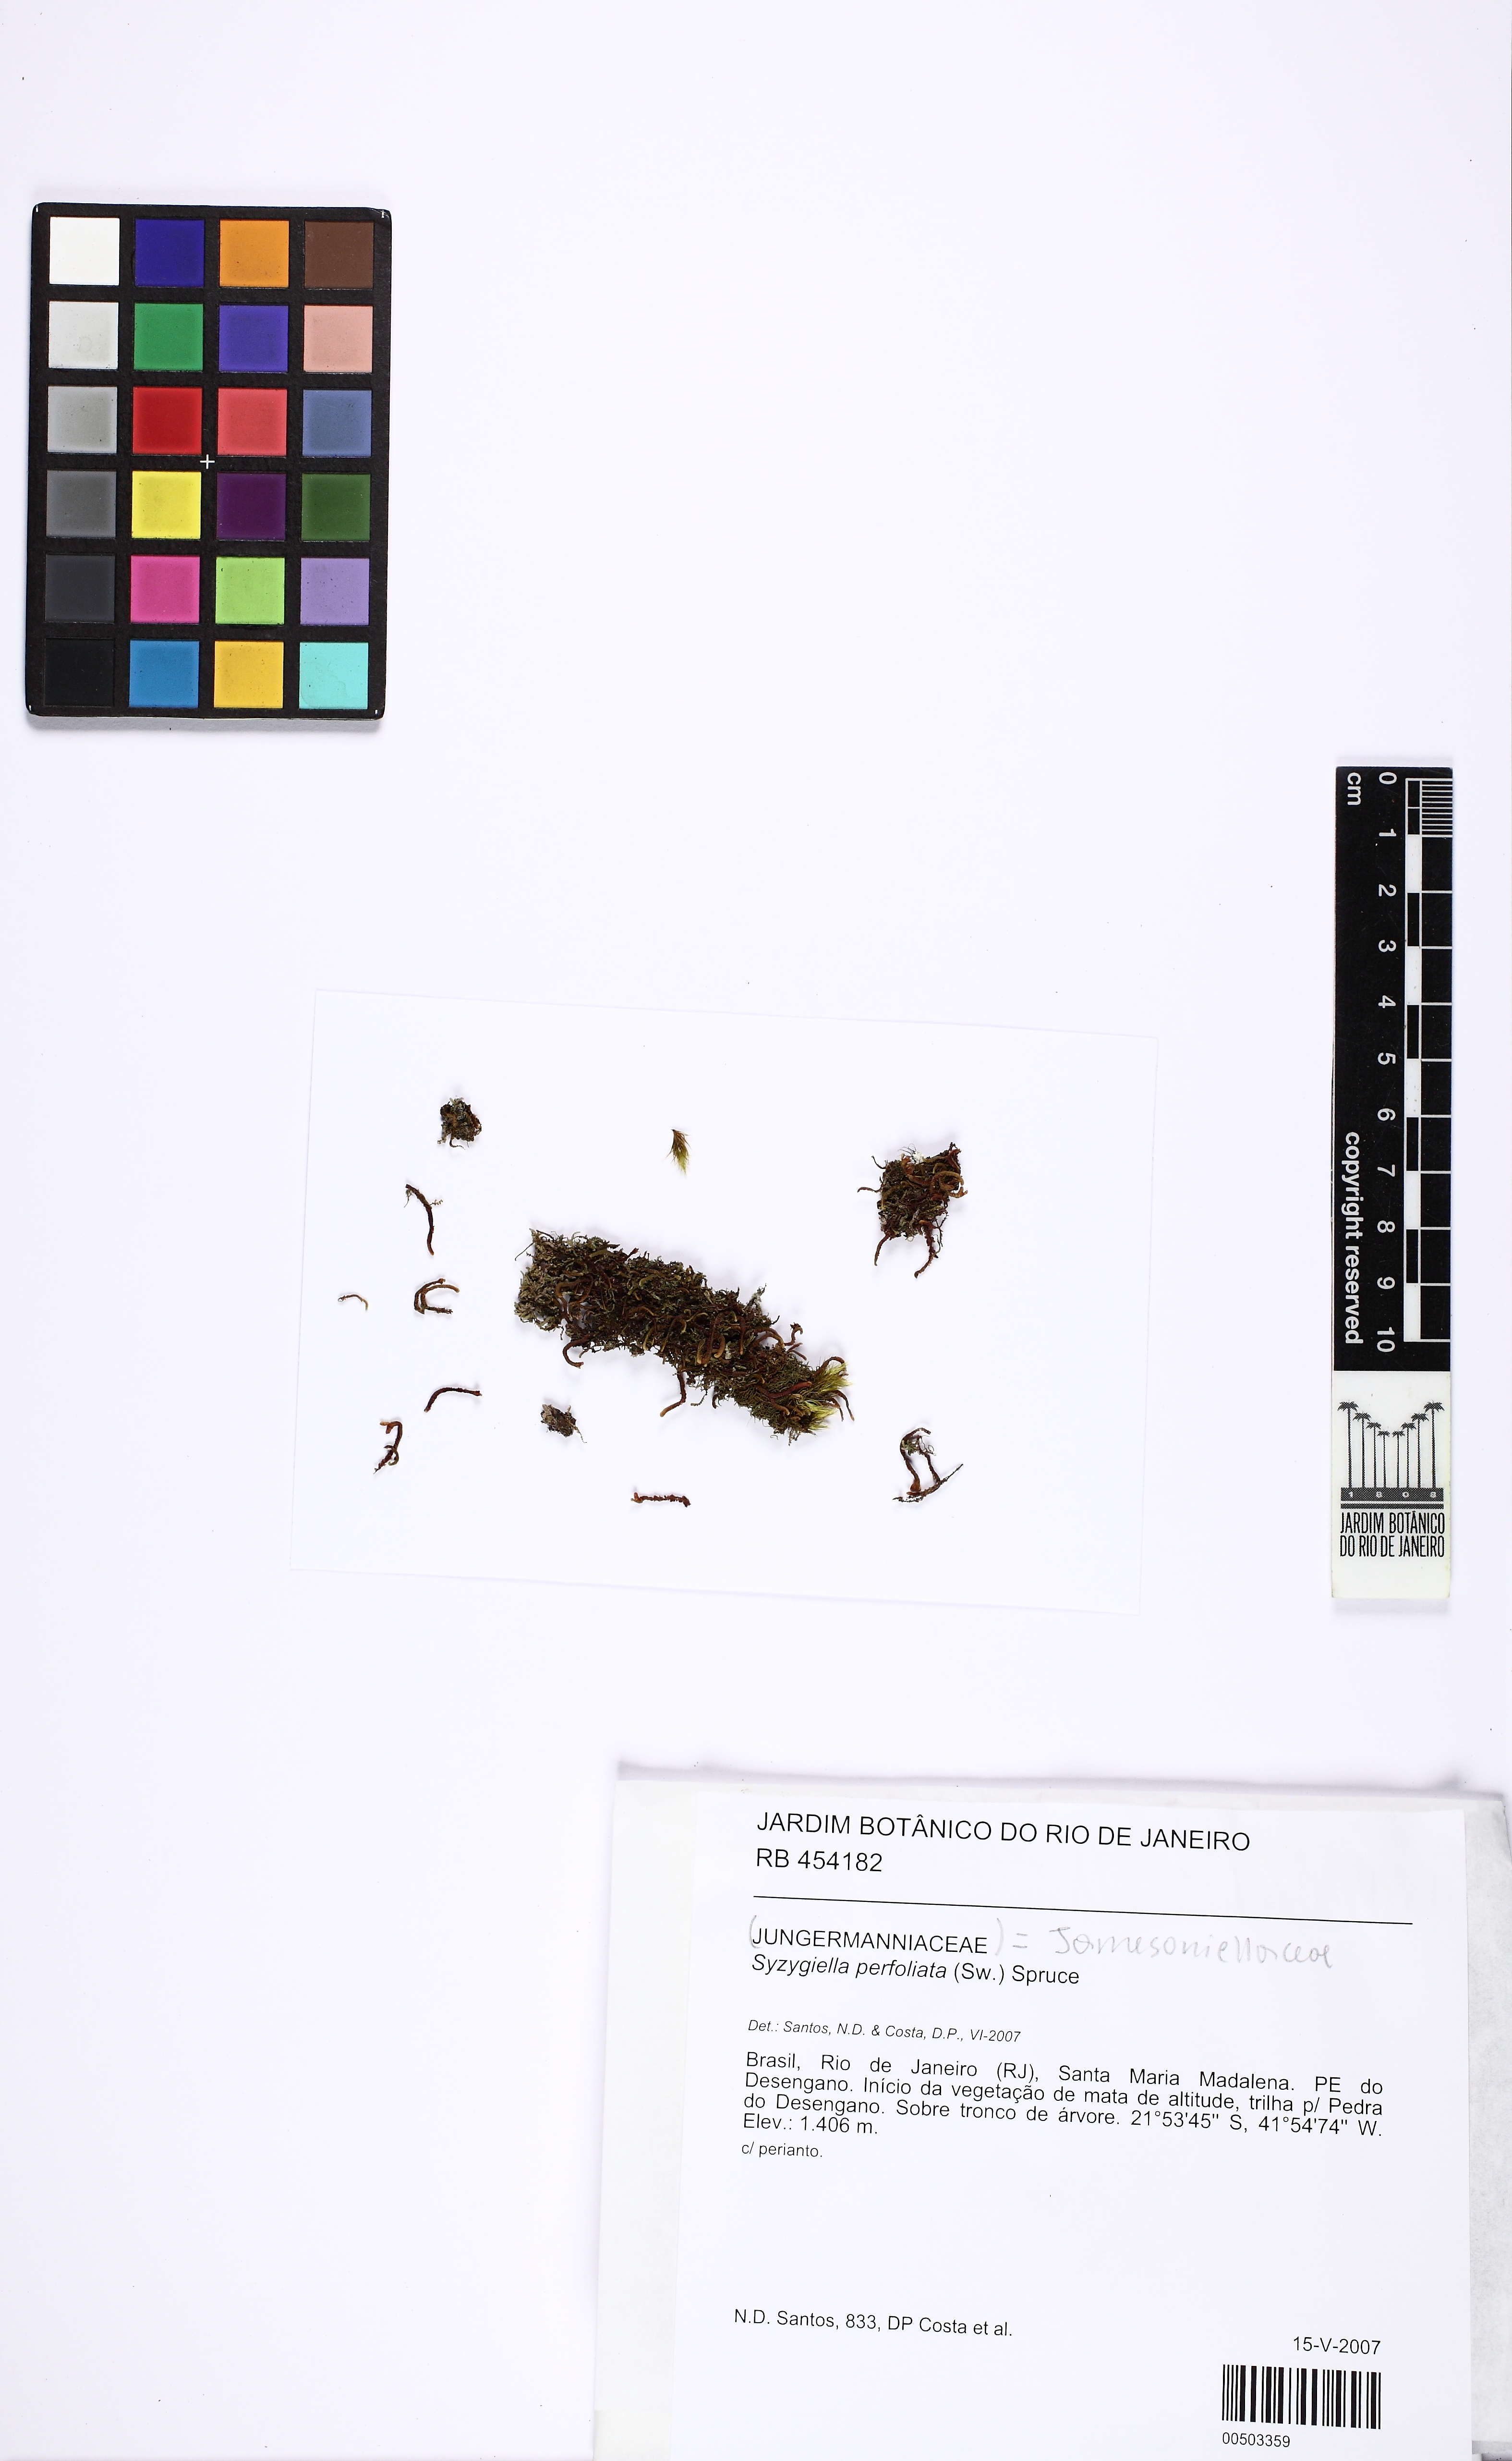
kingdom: Plantae
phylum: Marchantiophyta
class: Jungermanniopsida
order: Jungermanniales
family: Adelanthaceae
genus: Syzygiella
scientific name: Syzygiella perfoliata
